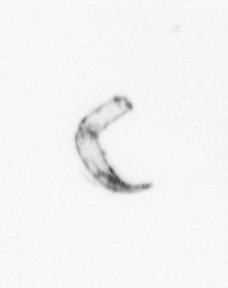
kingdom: Chromista
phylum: Ochrophyta
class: Bacillariophyceae
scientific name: Bacillariophyceae
